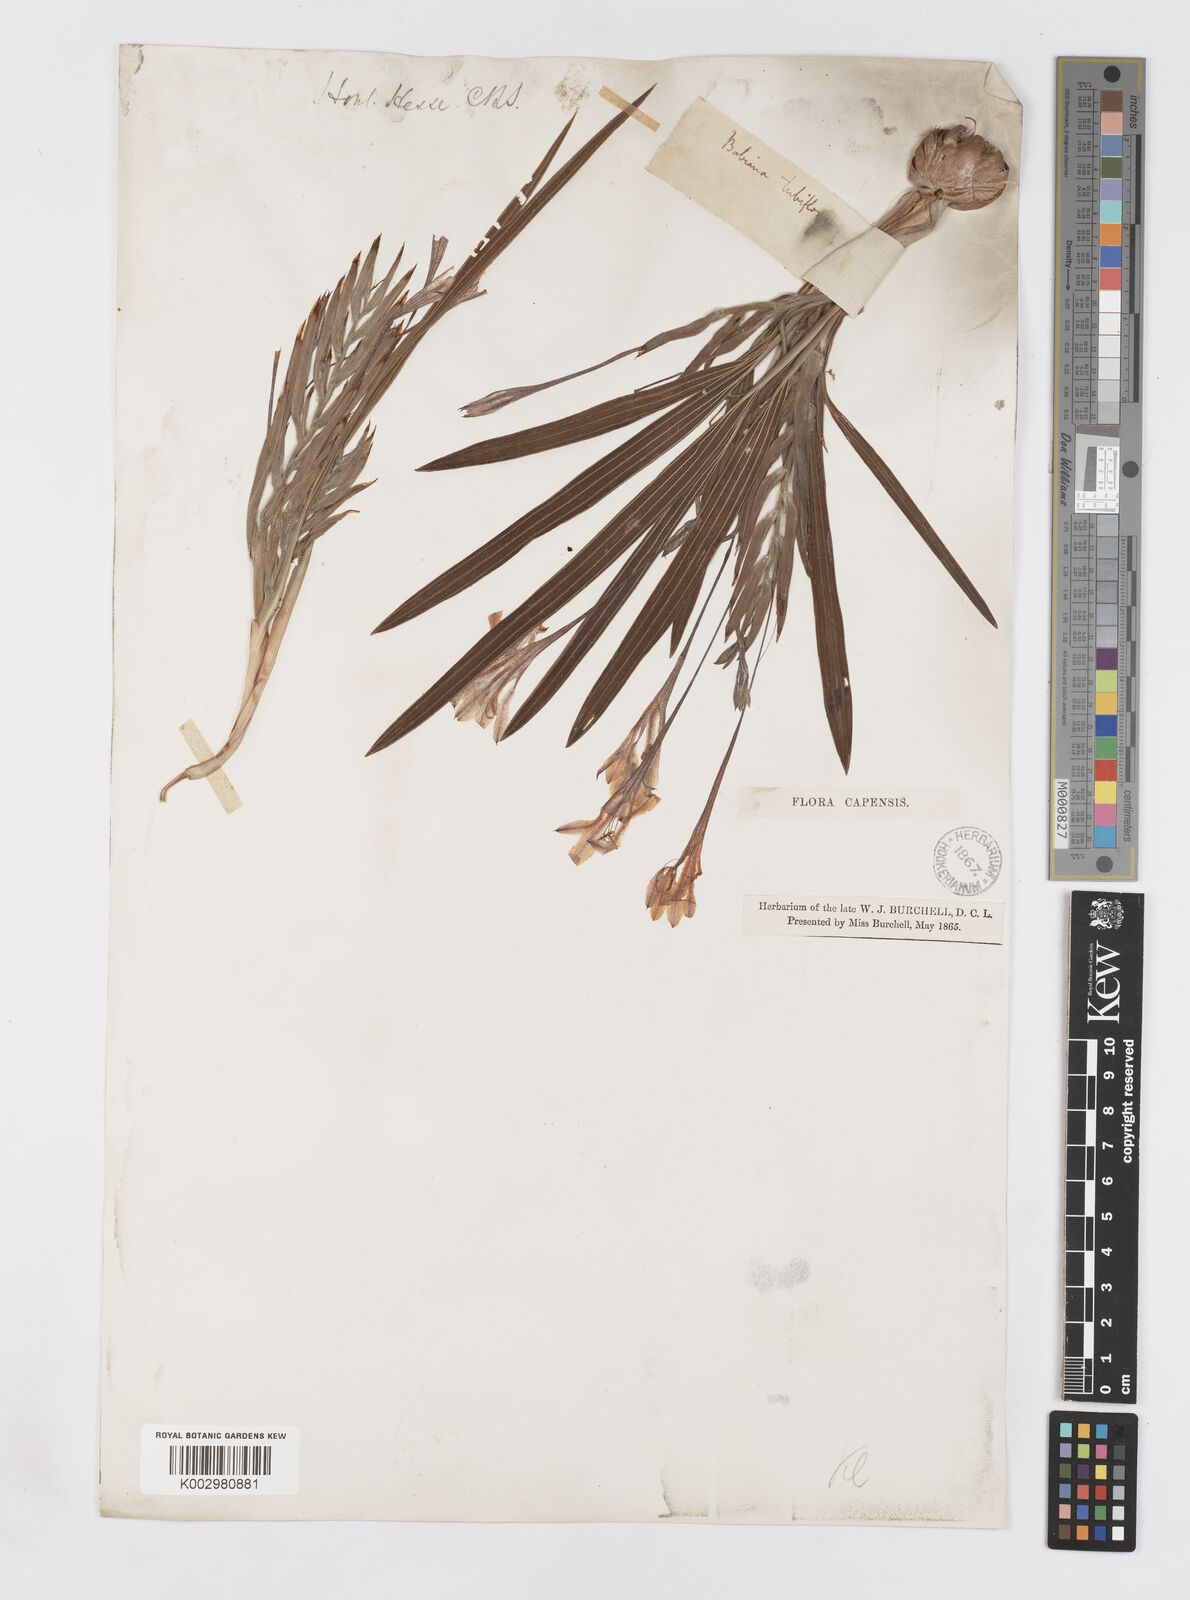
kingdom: Plantae
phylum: Tracheophyta
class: Liliopsida
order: Asparagales
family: Iridaceae
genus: Babiana
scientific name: Babiana tubulosa
